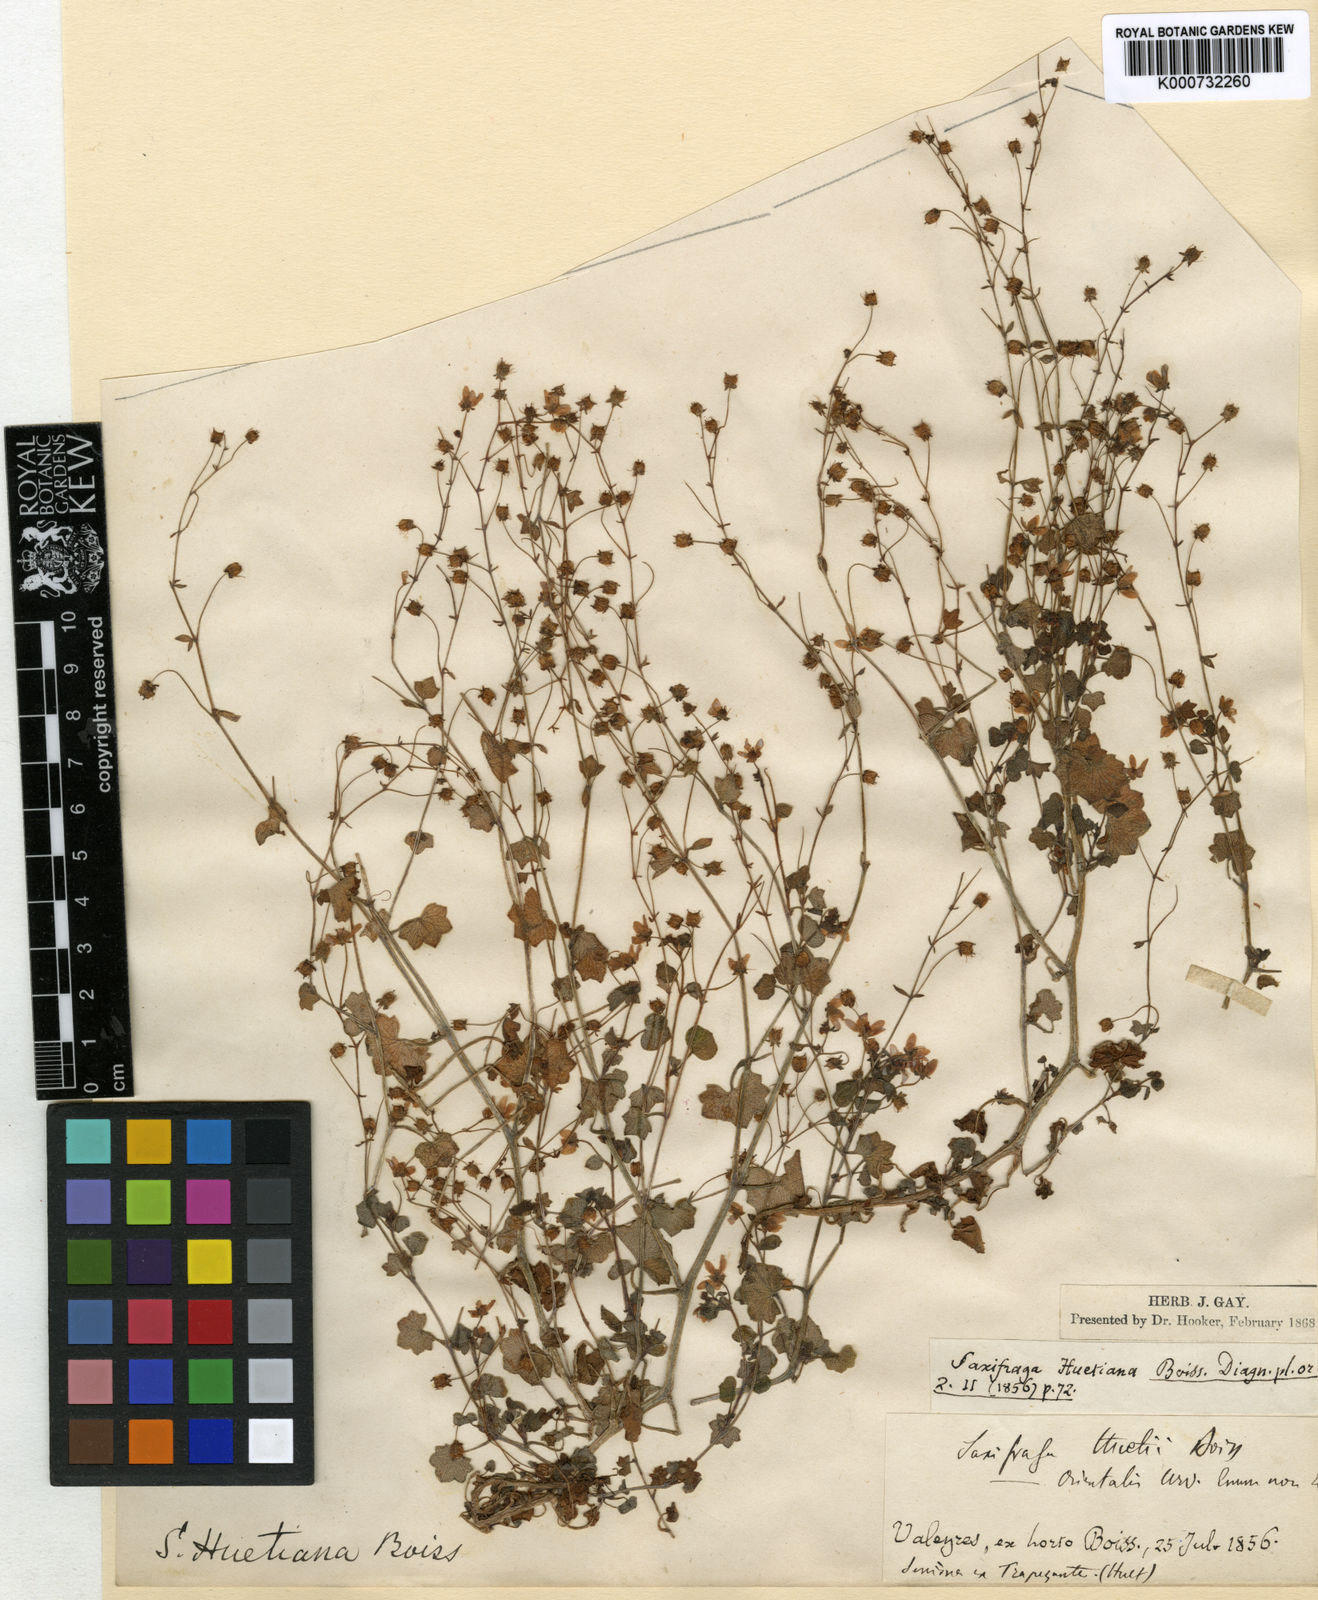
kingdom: Plantae
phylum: Tracheophyta
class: Magnoliopsida
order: Saxifragales
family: Saxifragaceae
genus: Saxifraga
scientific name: Saxifraga cymbalaria
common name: Celandine saxifrage
